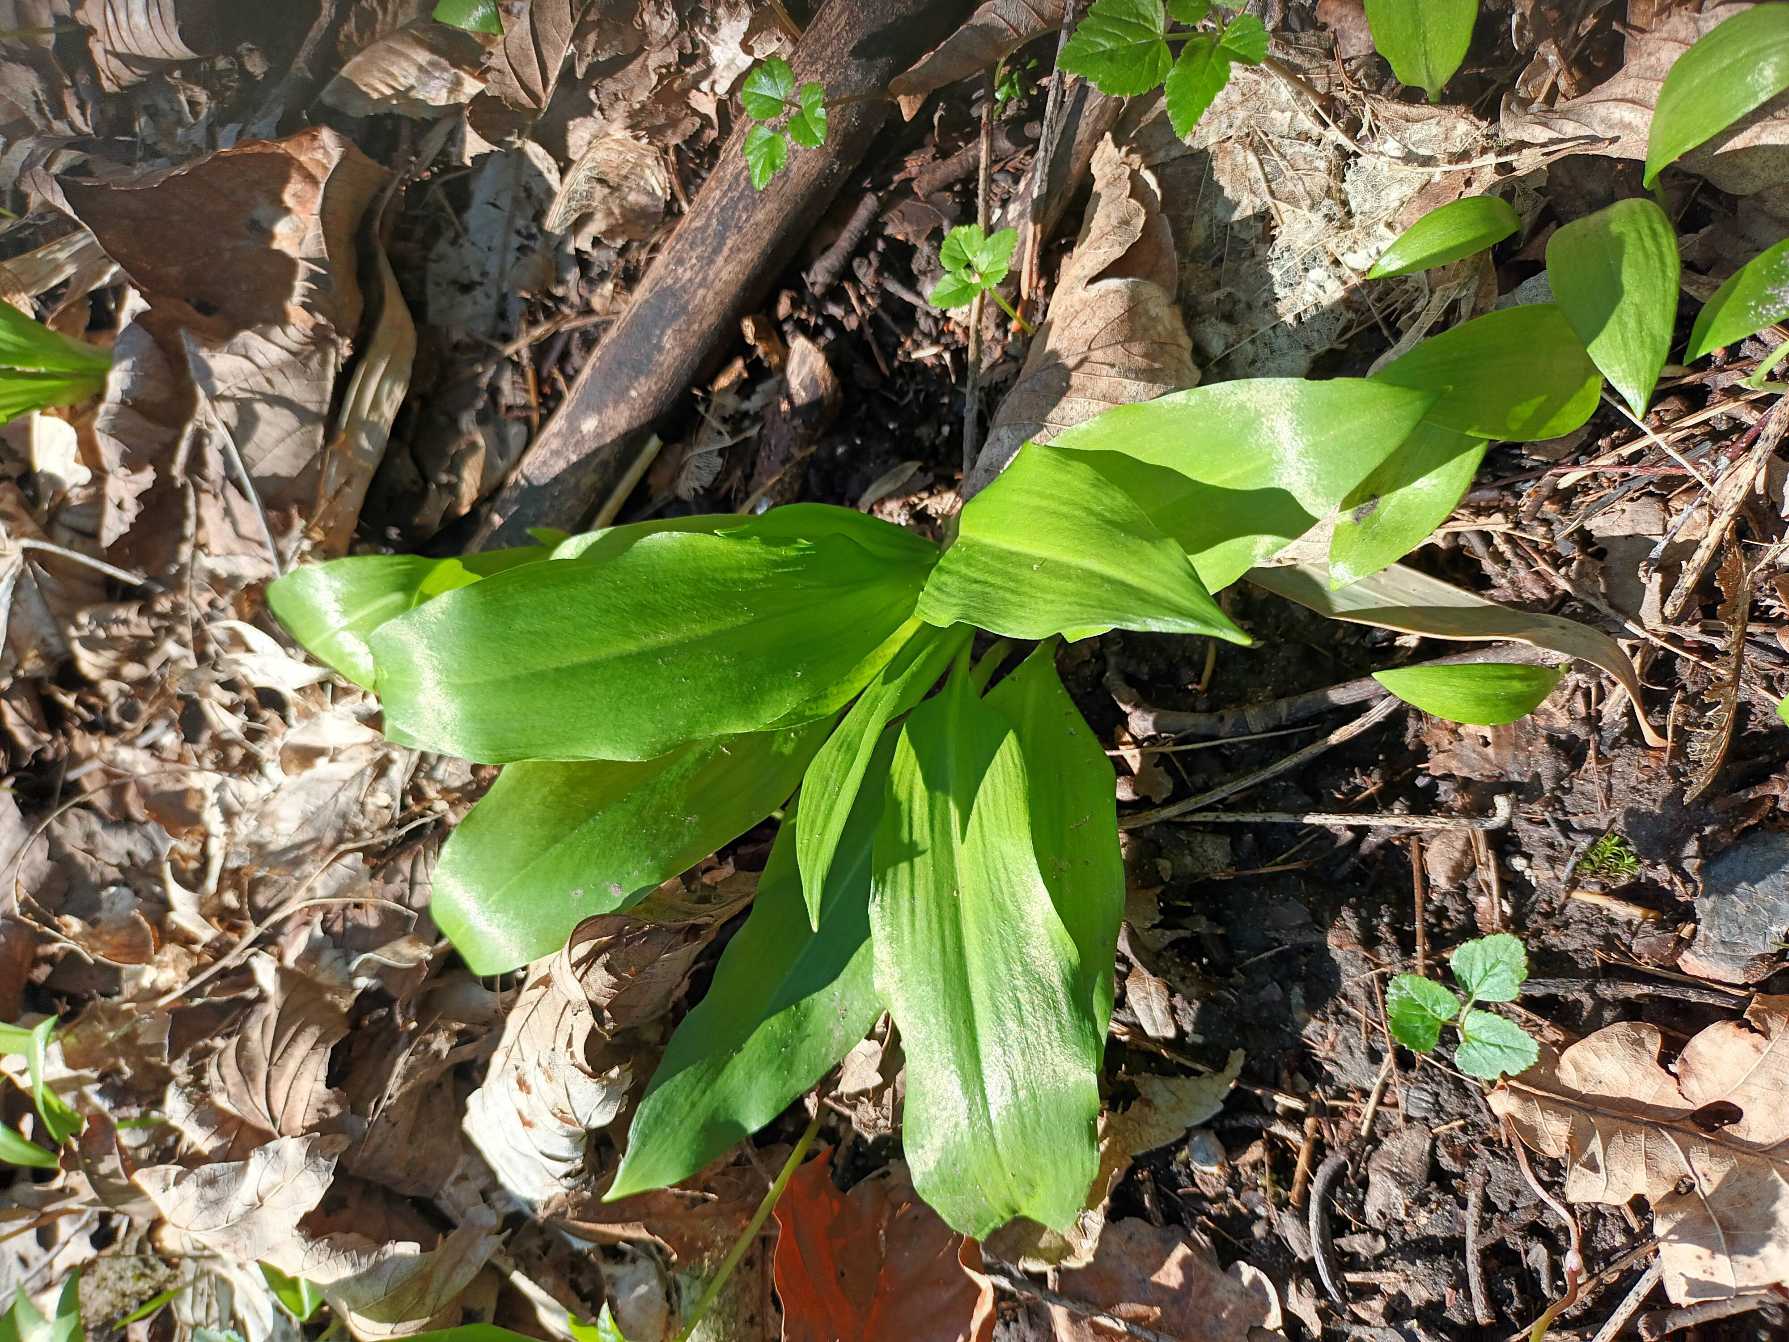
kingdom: Plantae
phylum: Tracheophyta
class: Liliopsida
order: Asparagales
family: Amaryllidaceae
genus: Allium
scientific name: Allium ursinum
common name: Rams-løg
